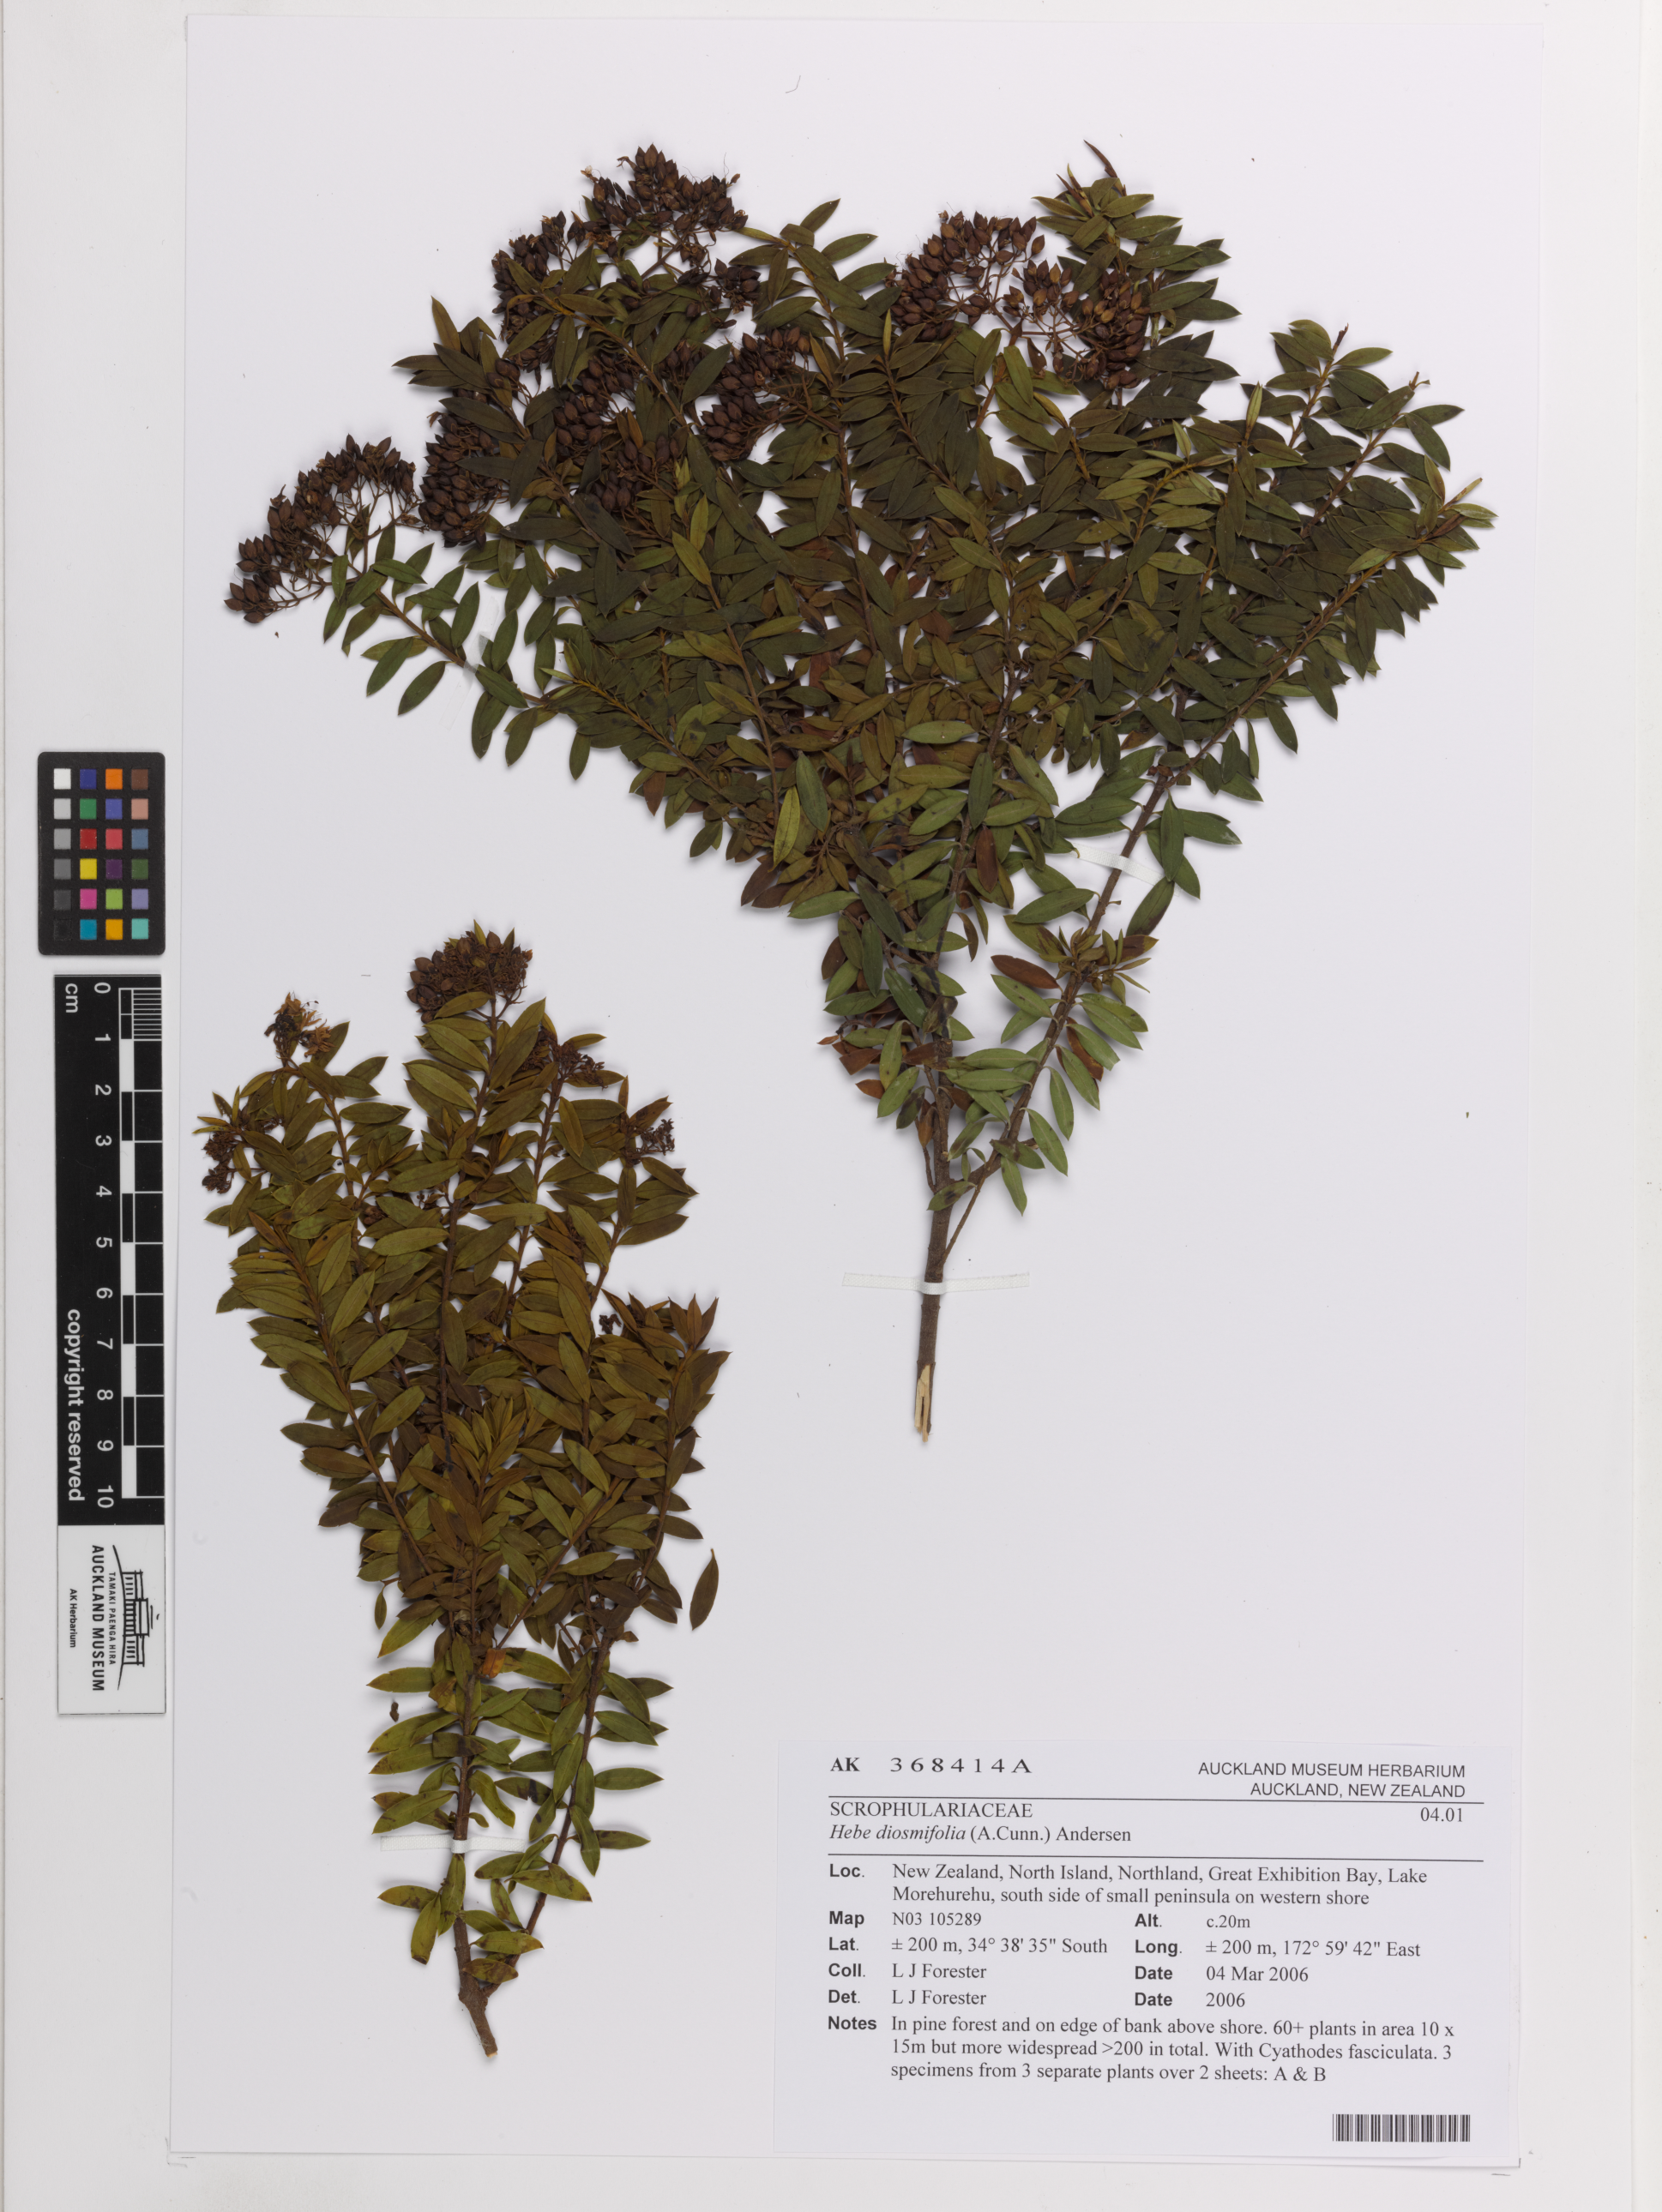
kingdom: Plantae
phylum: Tracheophyta
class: Magnoliopsida
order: Lamiales
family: Plantaginaceae
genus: Veronica
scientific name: Veronica diosmifolia
